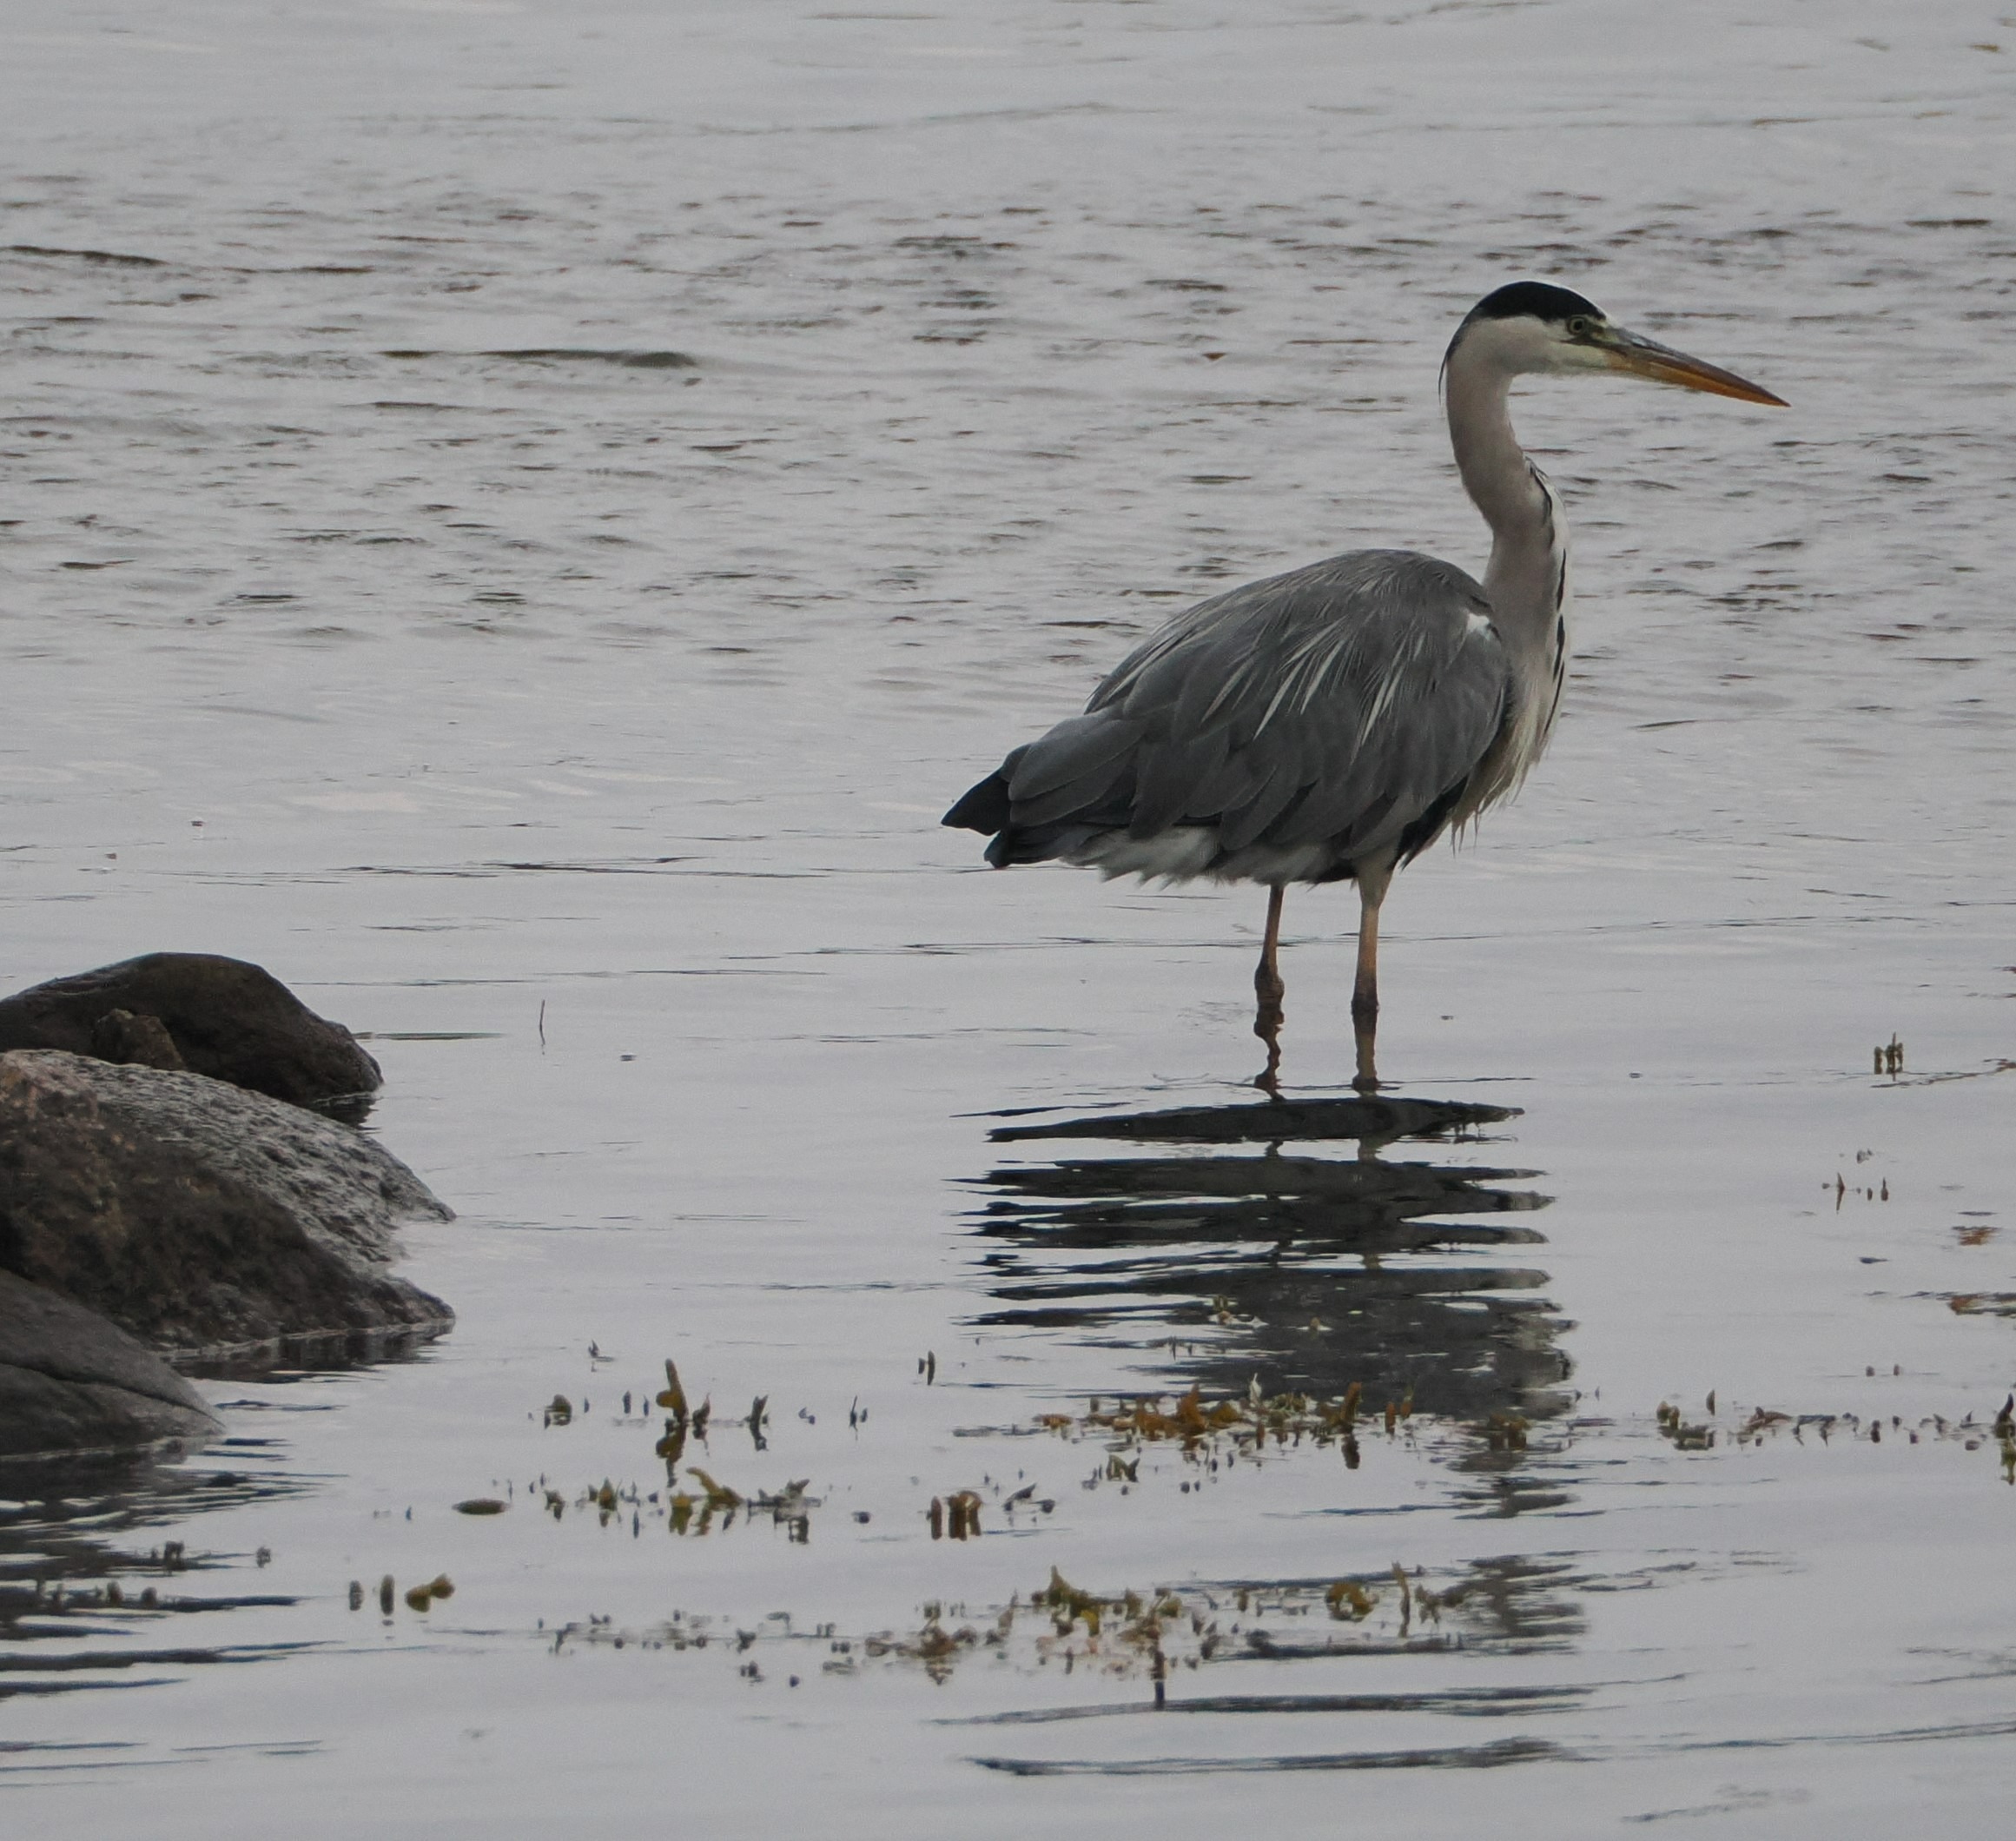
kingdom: Animalia
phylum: Chordata
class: Aves
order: Pelecaniformes
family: Ardeidae
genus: Ardea
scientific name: Ardea cinerea
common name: Fiskehejre
